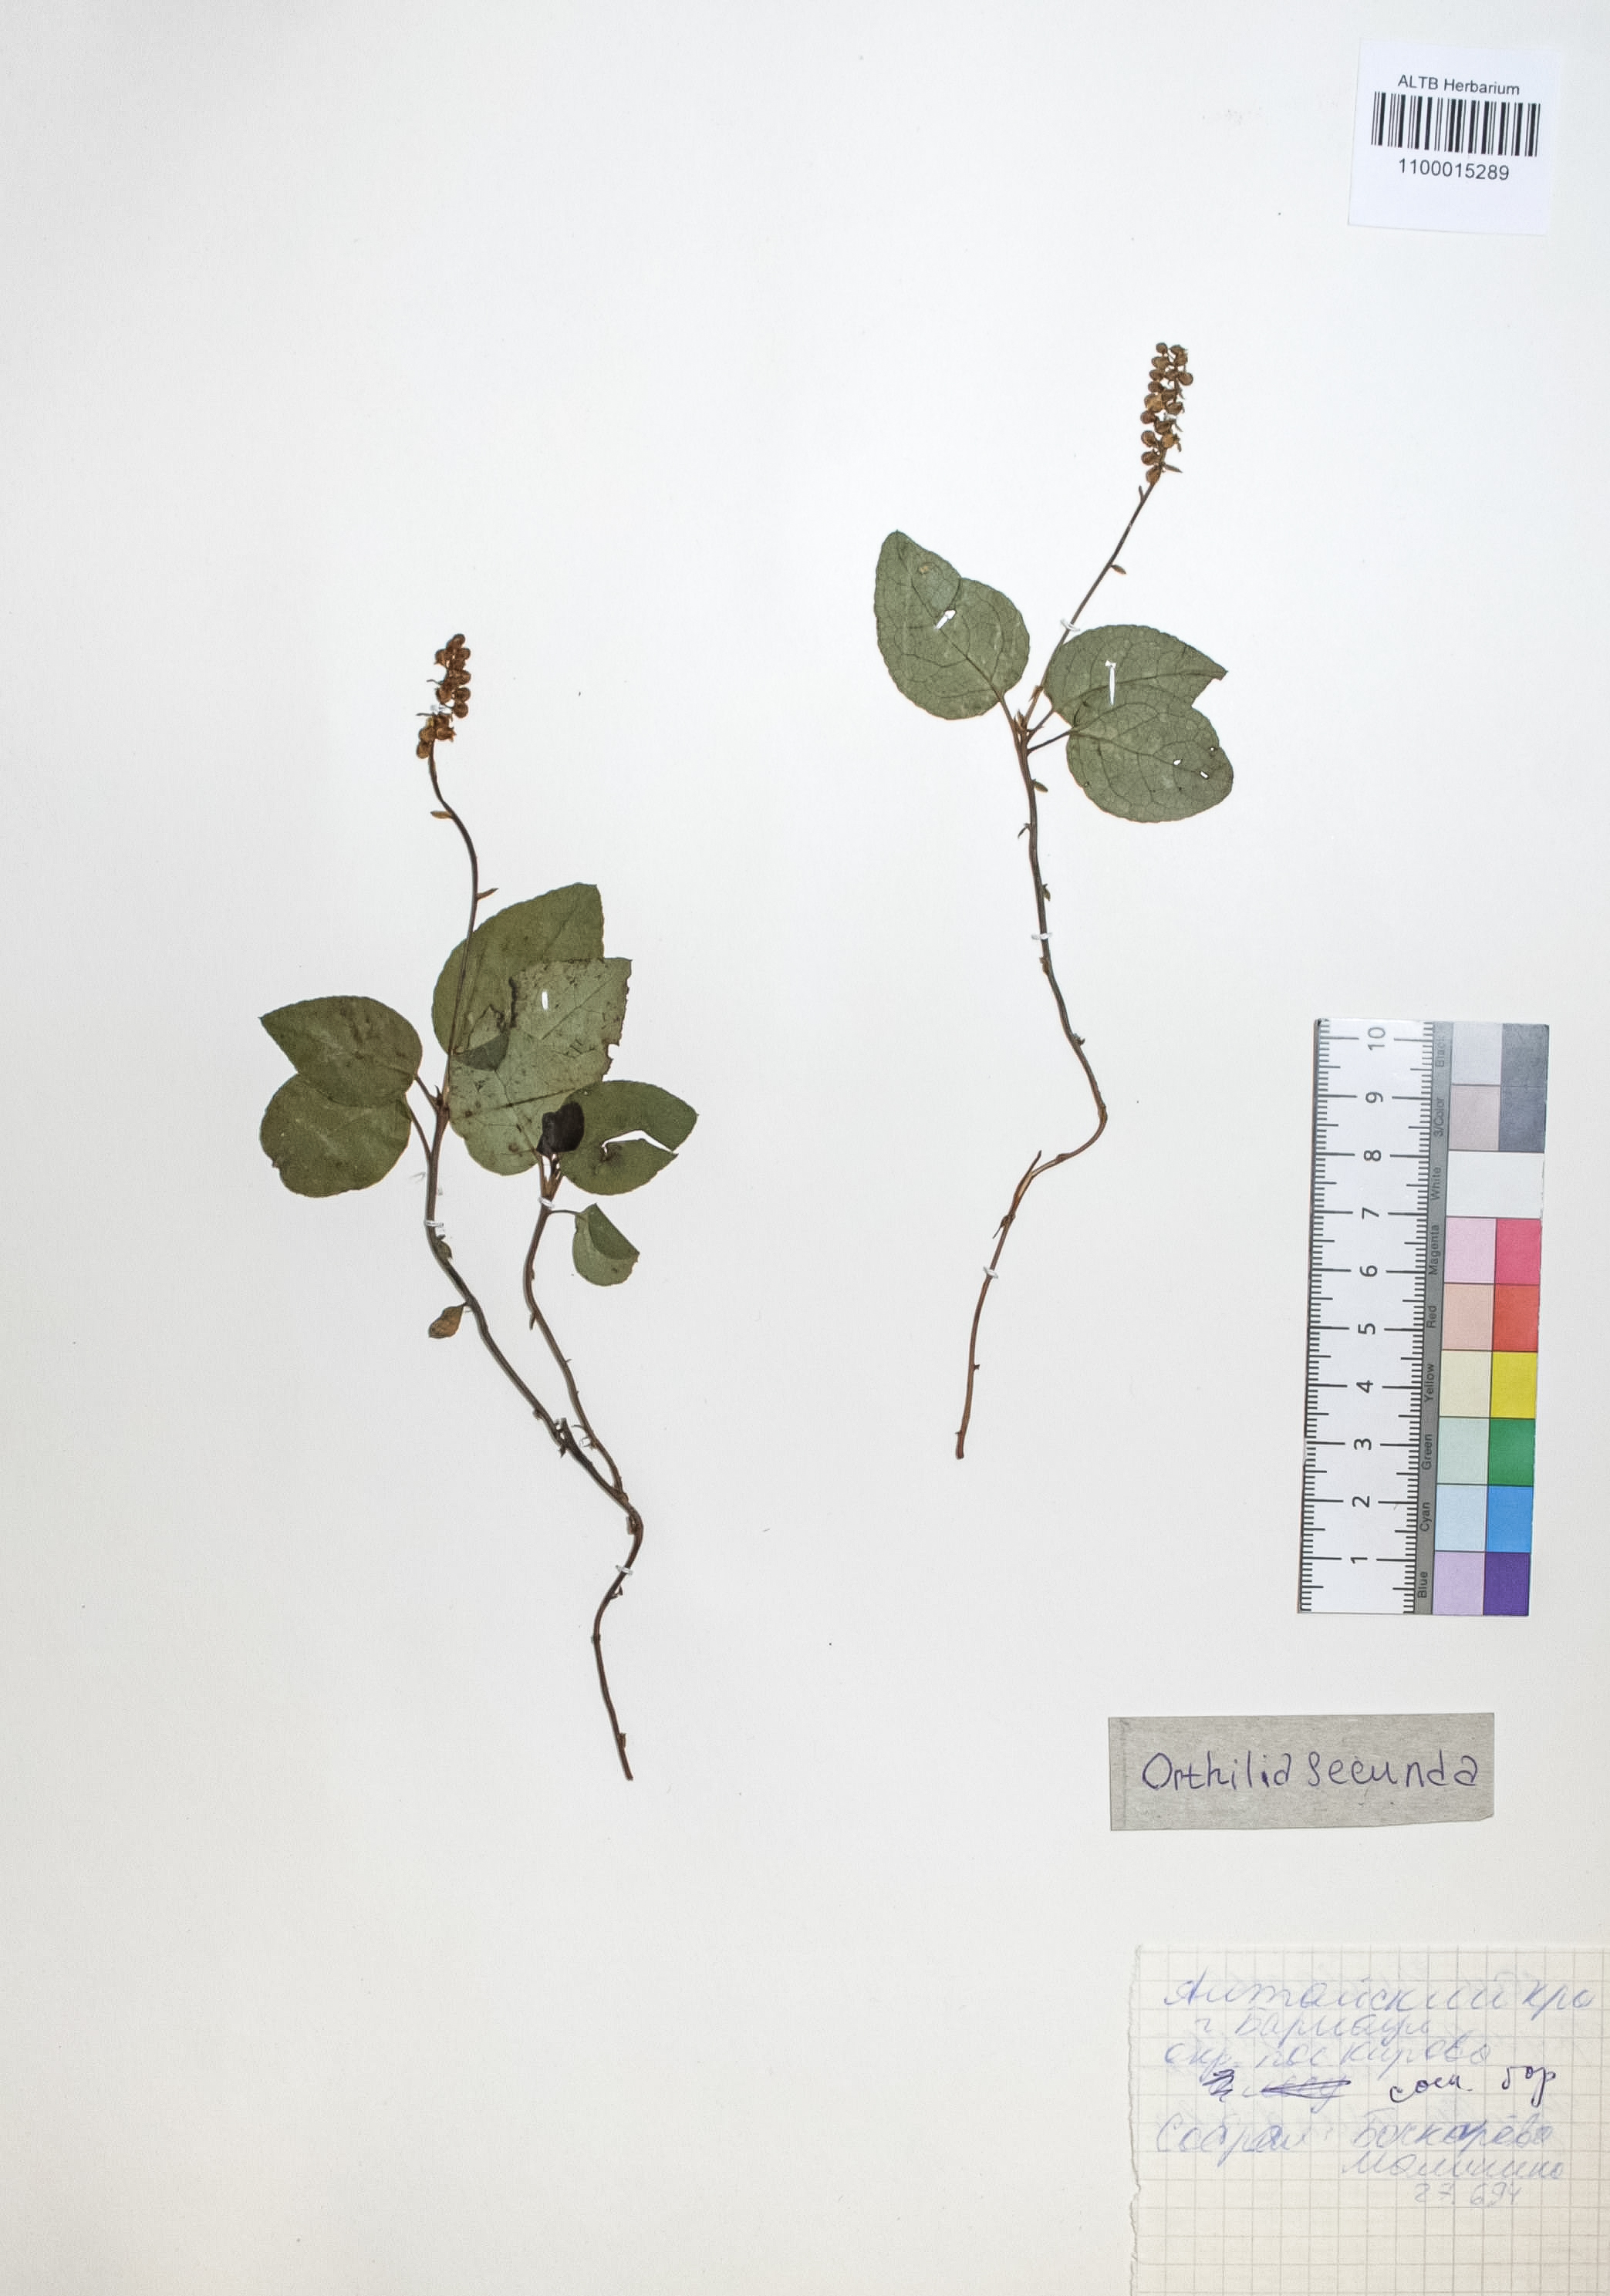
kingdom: Plantae
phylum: Tracheophyta
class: Magnoliopsida
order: Ericales
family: Ericaceae
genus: Orthilia
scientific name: Orthilia secunda
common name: One-sided orthilia
